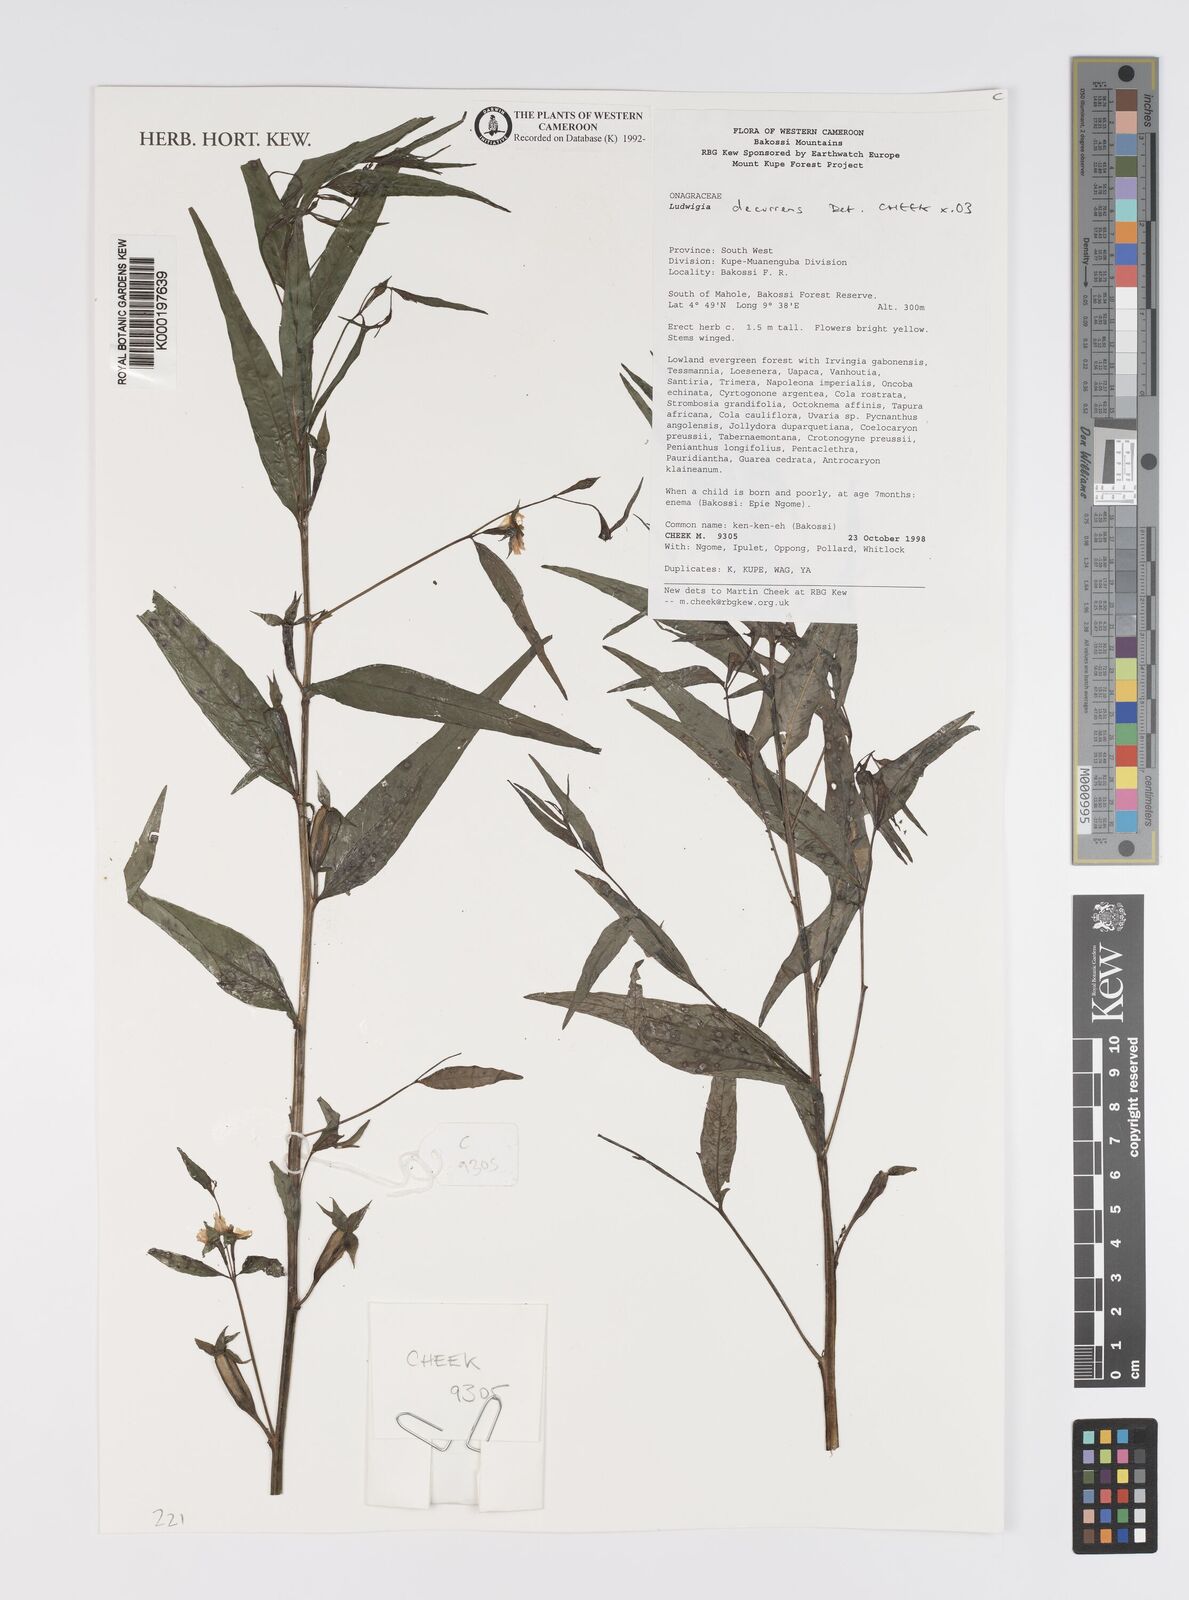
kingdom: Plantae
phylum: Tracheophyta
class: Magnoliopsida
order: Myrtales
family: Onagraceae
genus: Ludwigia
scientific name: Ludwigia decurrens
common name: Winged water-primrose
